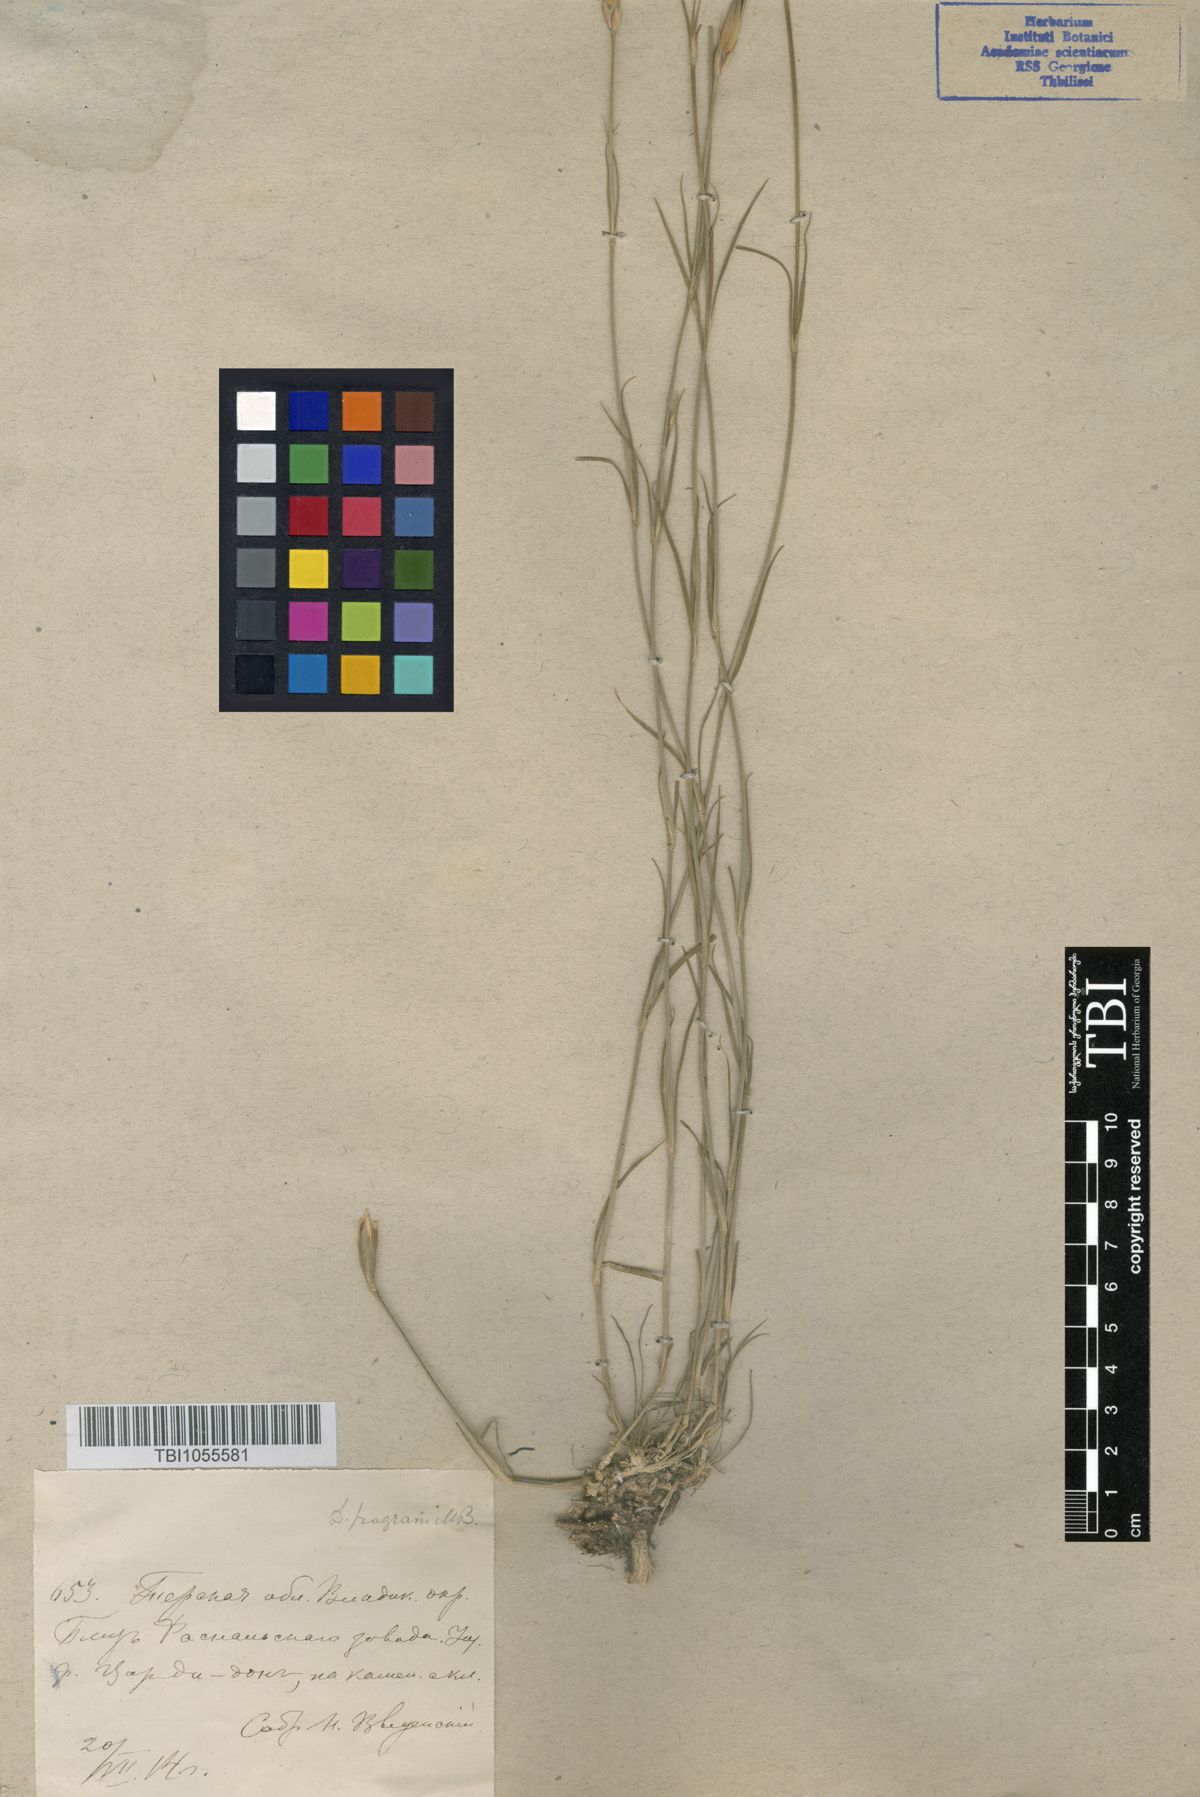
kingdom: Plantae
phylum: Tracheophyta
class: Magnoliopsida
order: Caryophyllales
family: Caryophyllaceae
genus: Dianthus
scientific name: Dianthus
